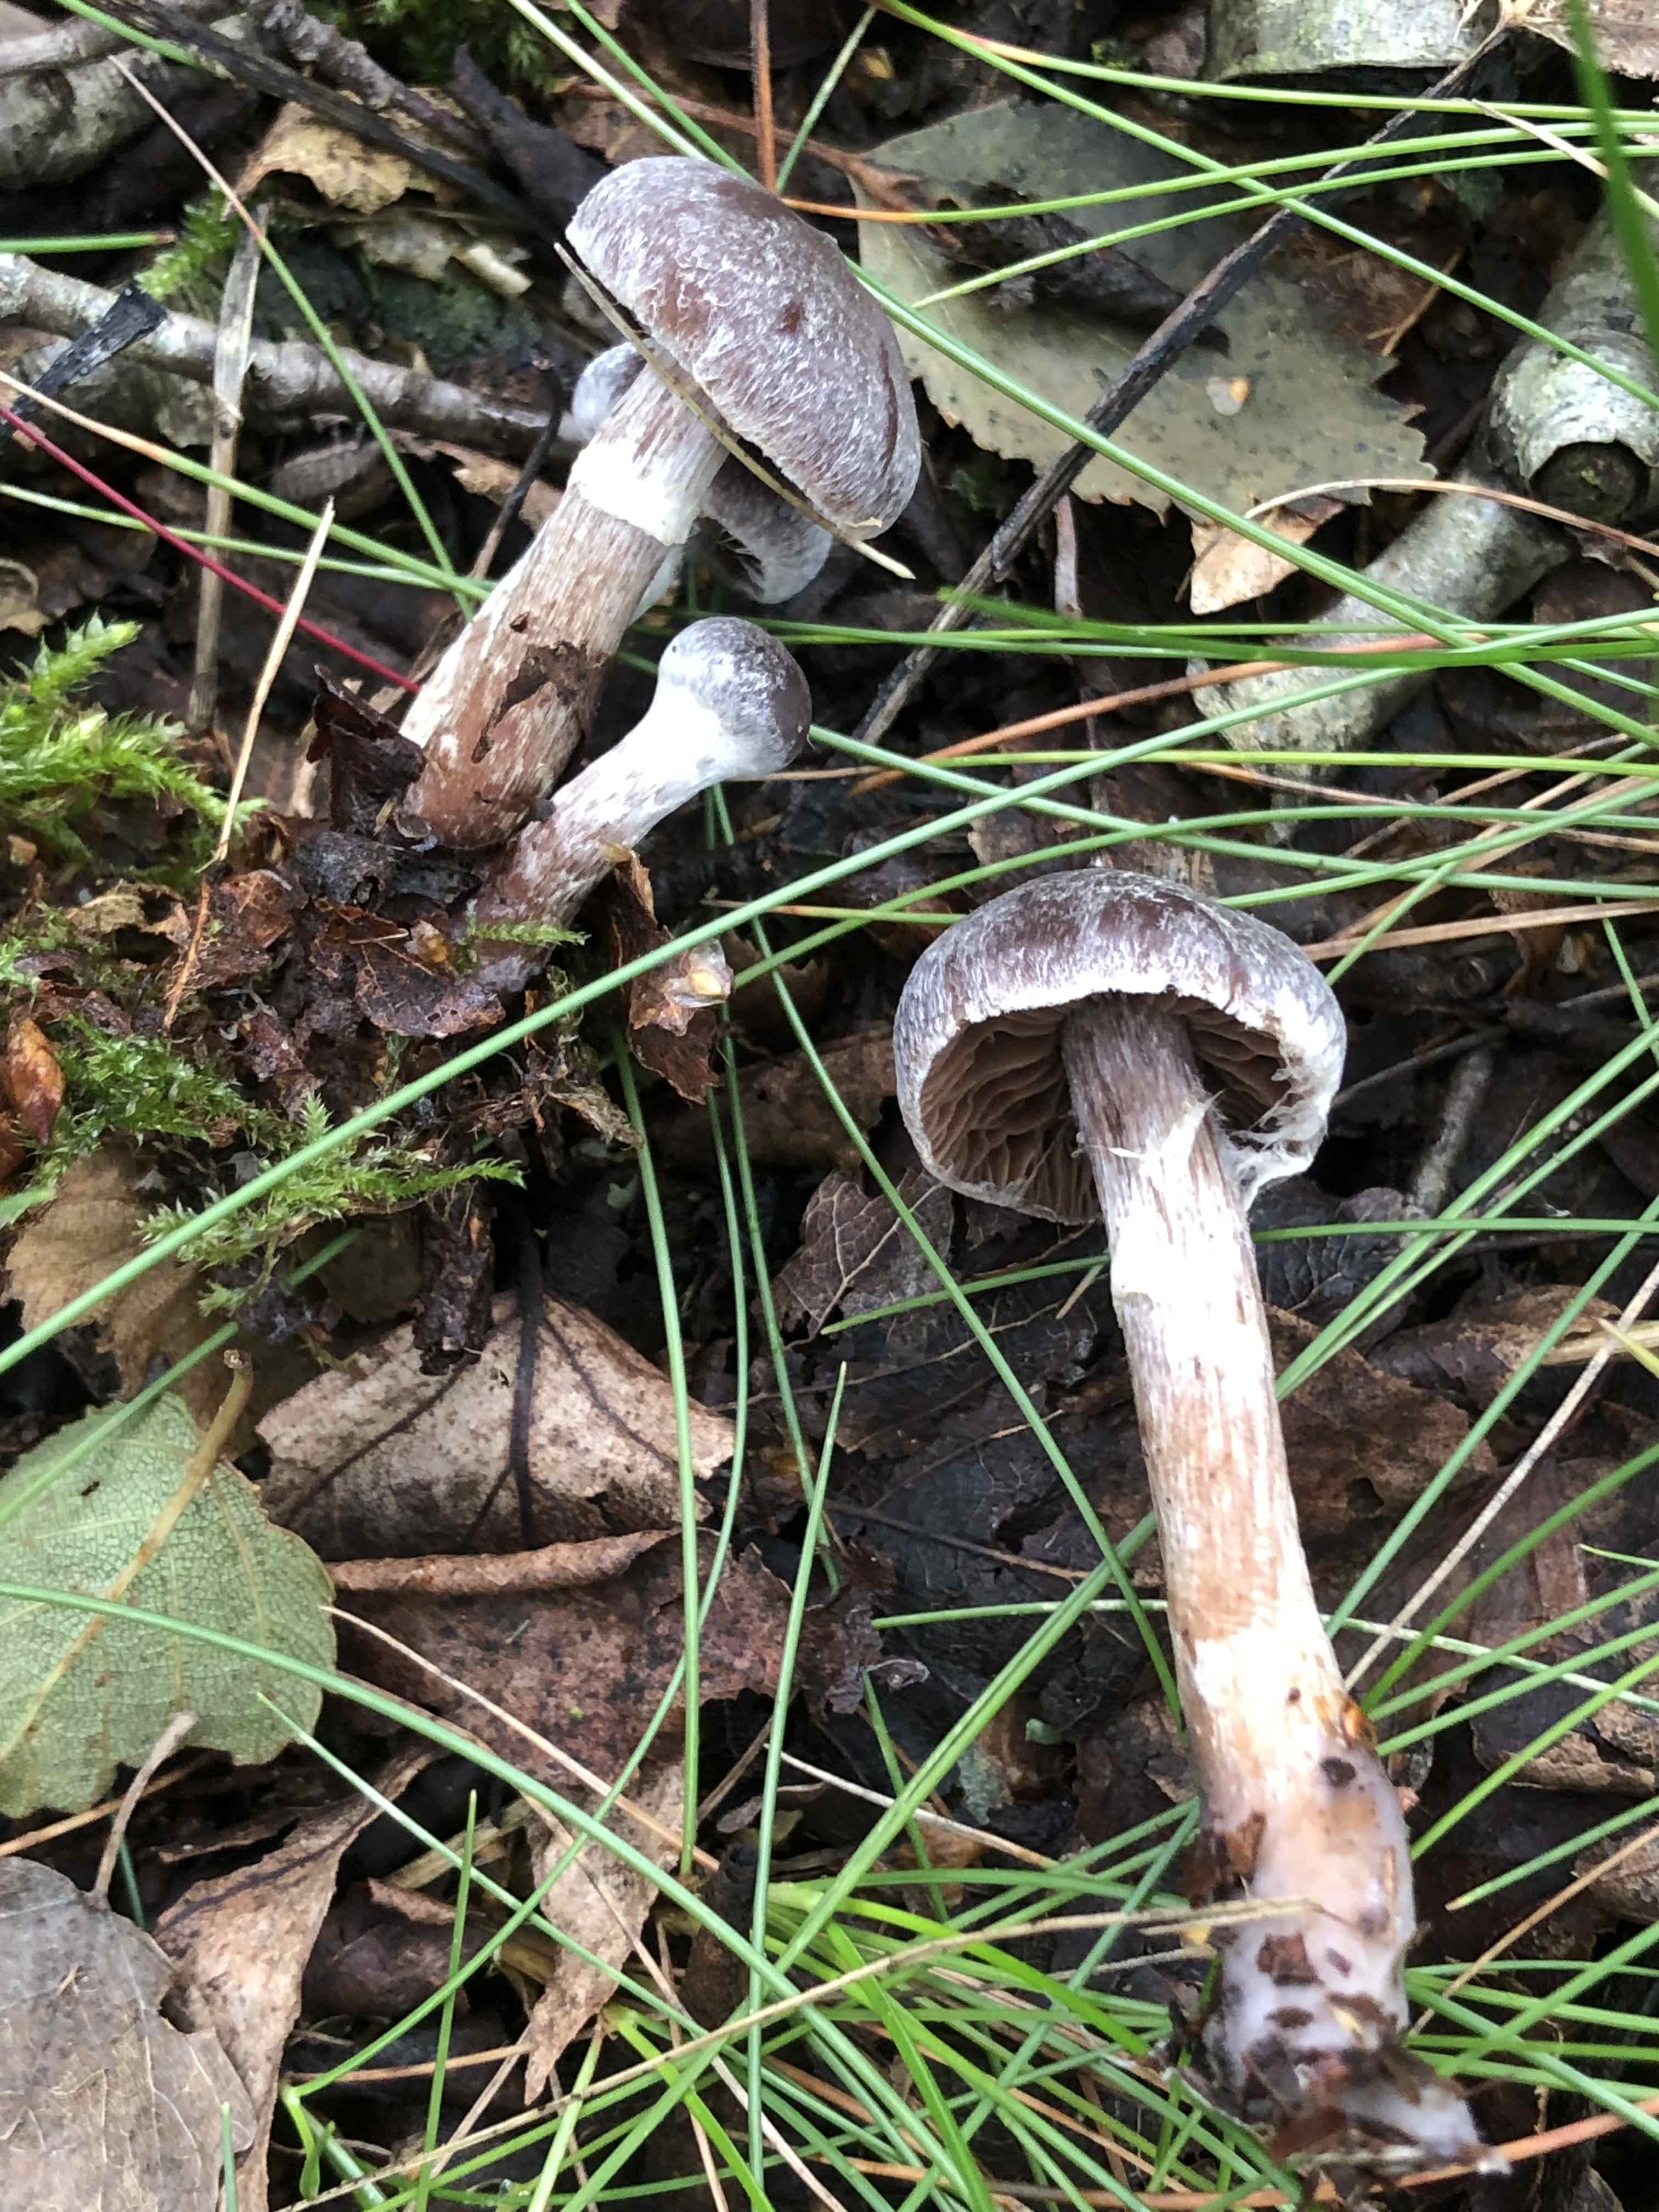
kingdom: Fungi
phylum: Basidiomycota
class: Agaricomycetes
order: Agaricales
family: Cortinariaceae
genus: Cortinarius
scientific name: Cortinarius
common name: pelargonie-slørhat
